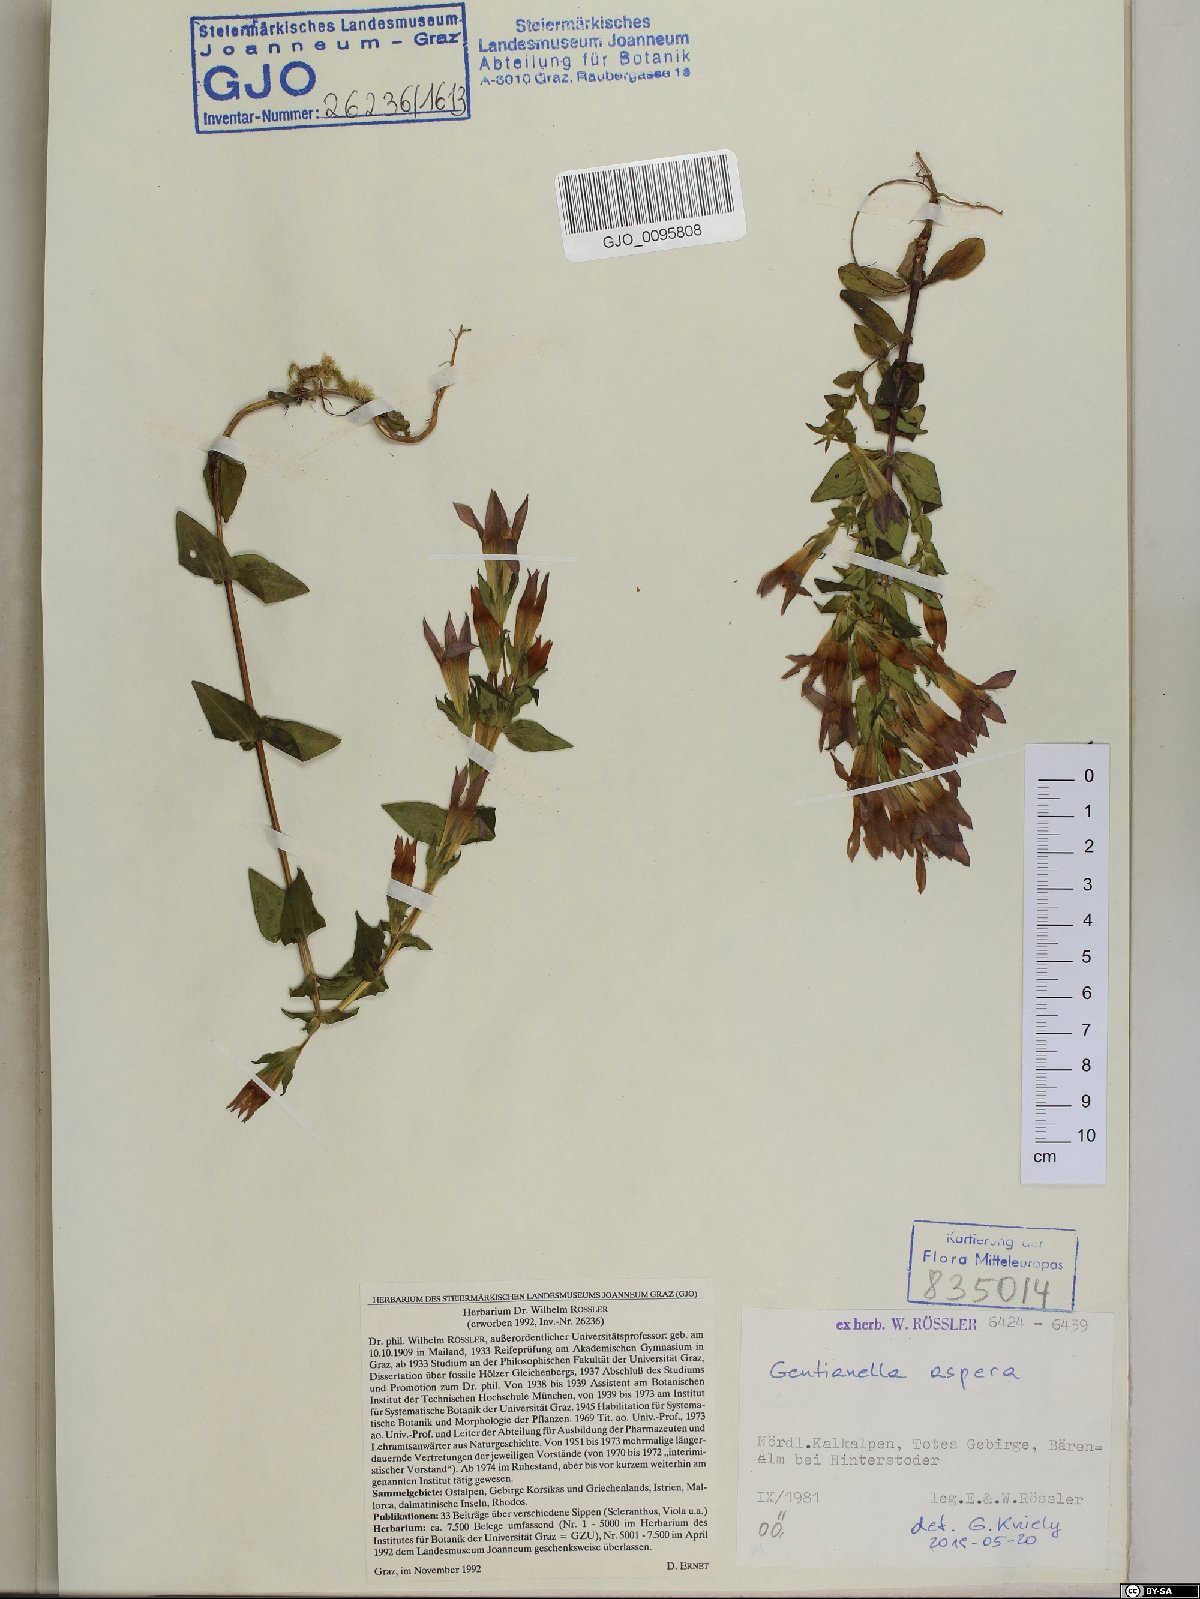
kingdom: Plantae
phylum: Tracheophyta
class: Magnoliopsida
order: Gentianales
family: Gentianaceae
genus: Gentianella
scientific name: Gentianella obtusifolia
